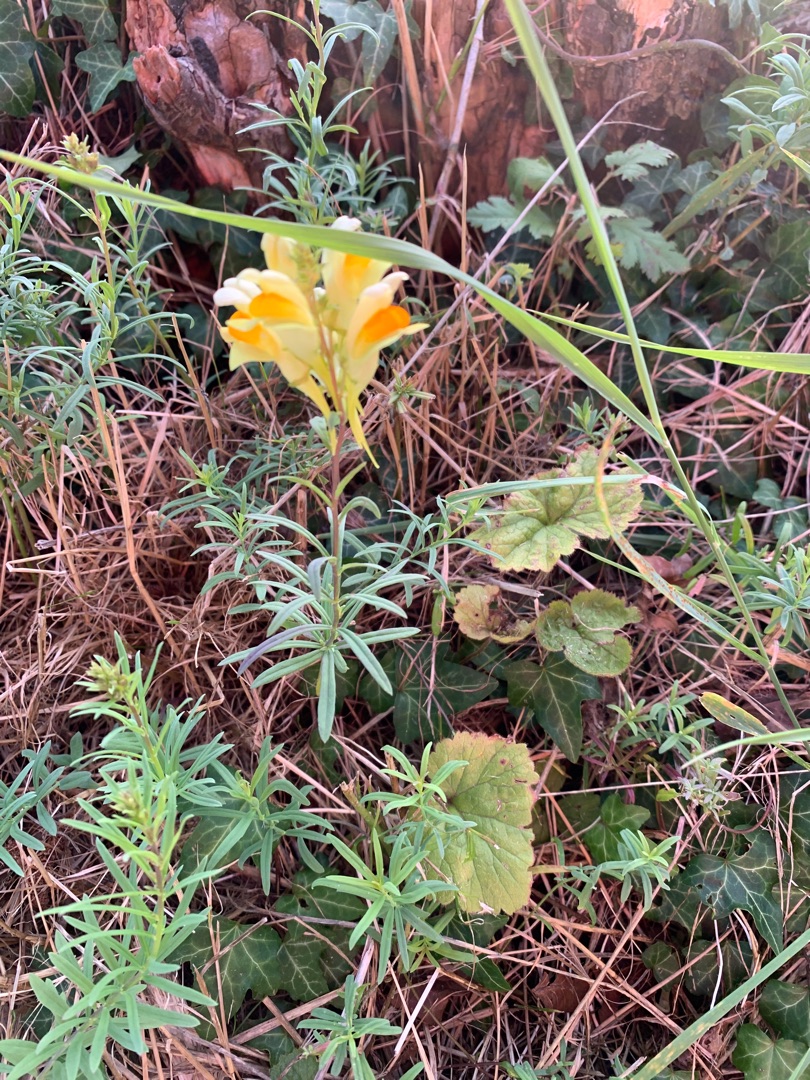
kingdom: Plantae
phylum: Tracheophyta
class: Magnoliopsida
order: Lamiales
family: Plantaginaceae
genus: Linaria
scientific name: Linaria vulgaris
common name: Almindelig torskemund
